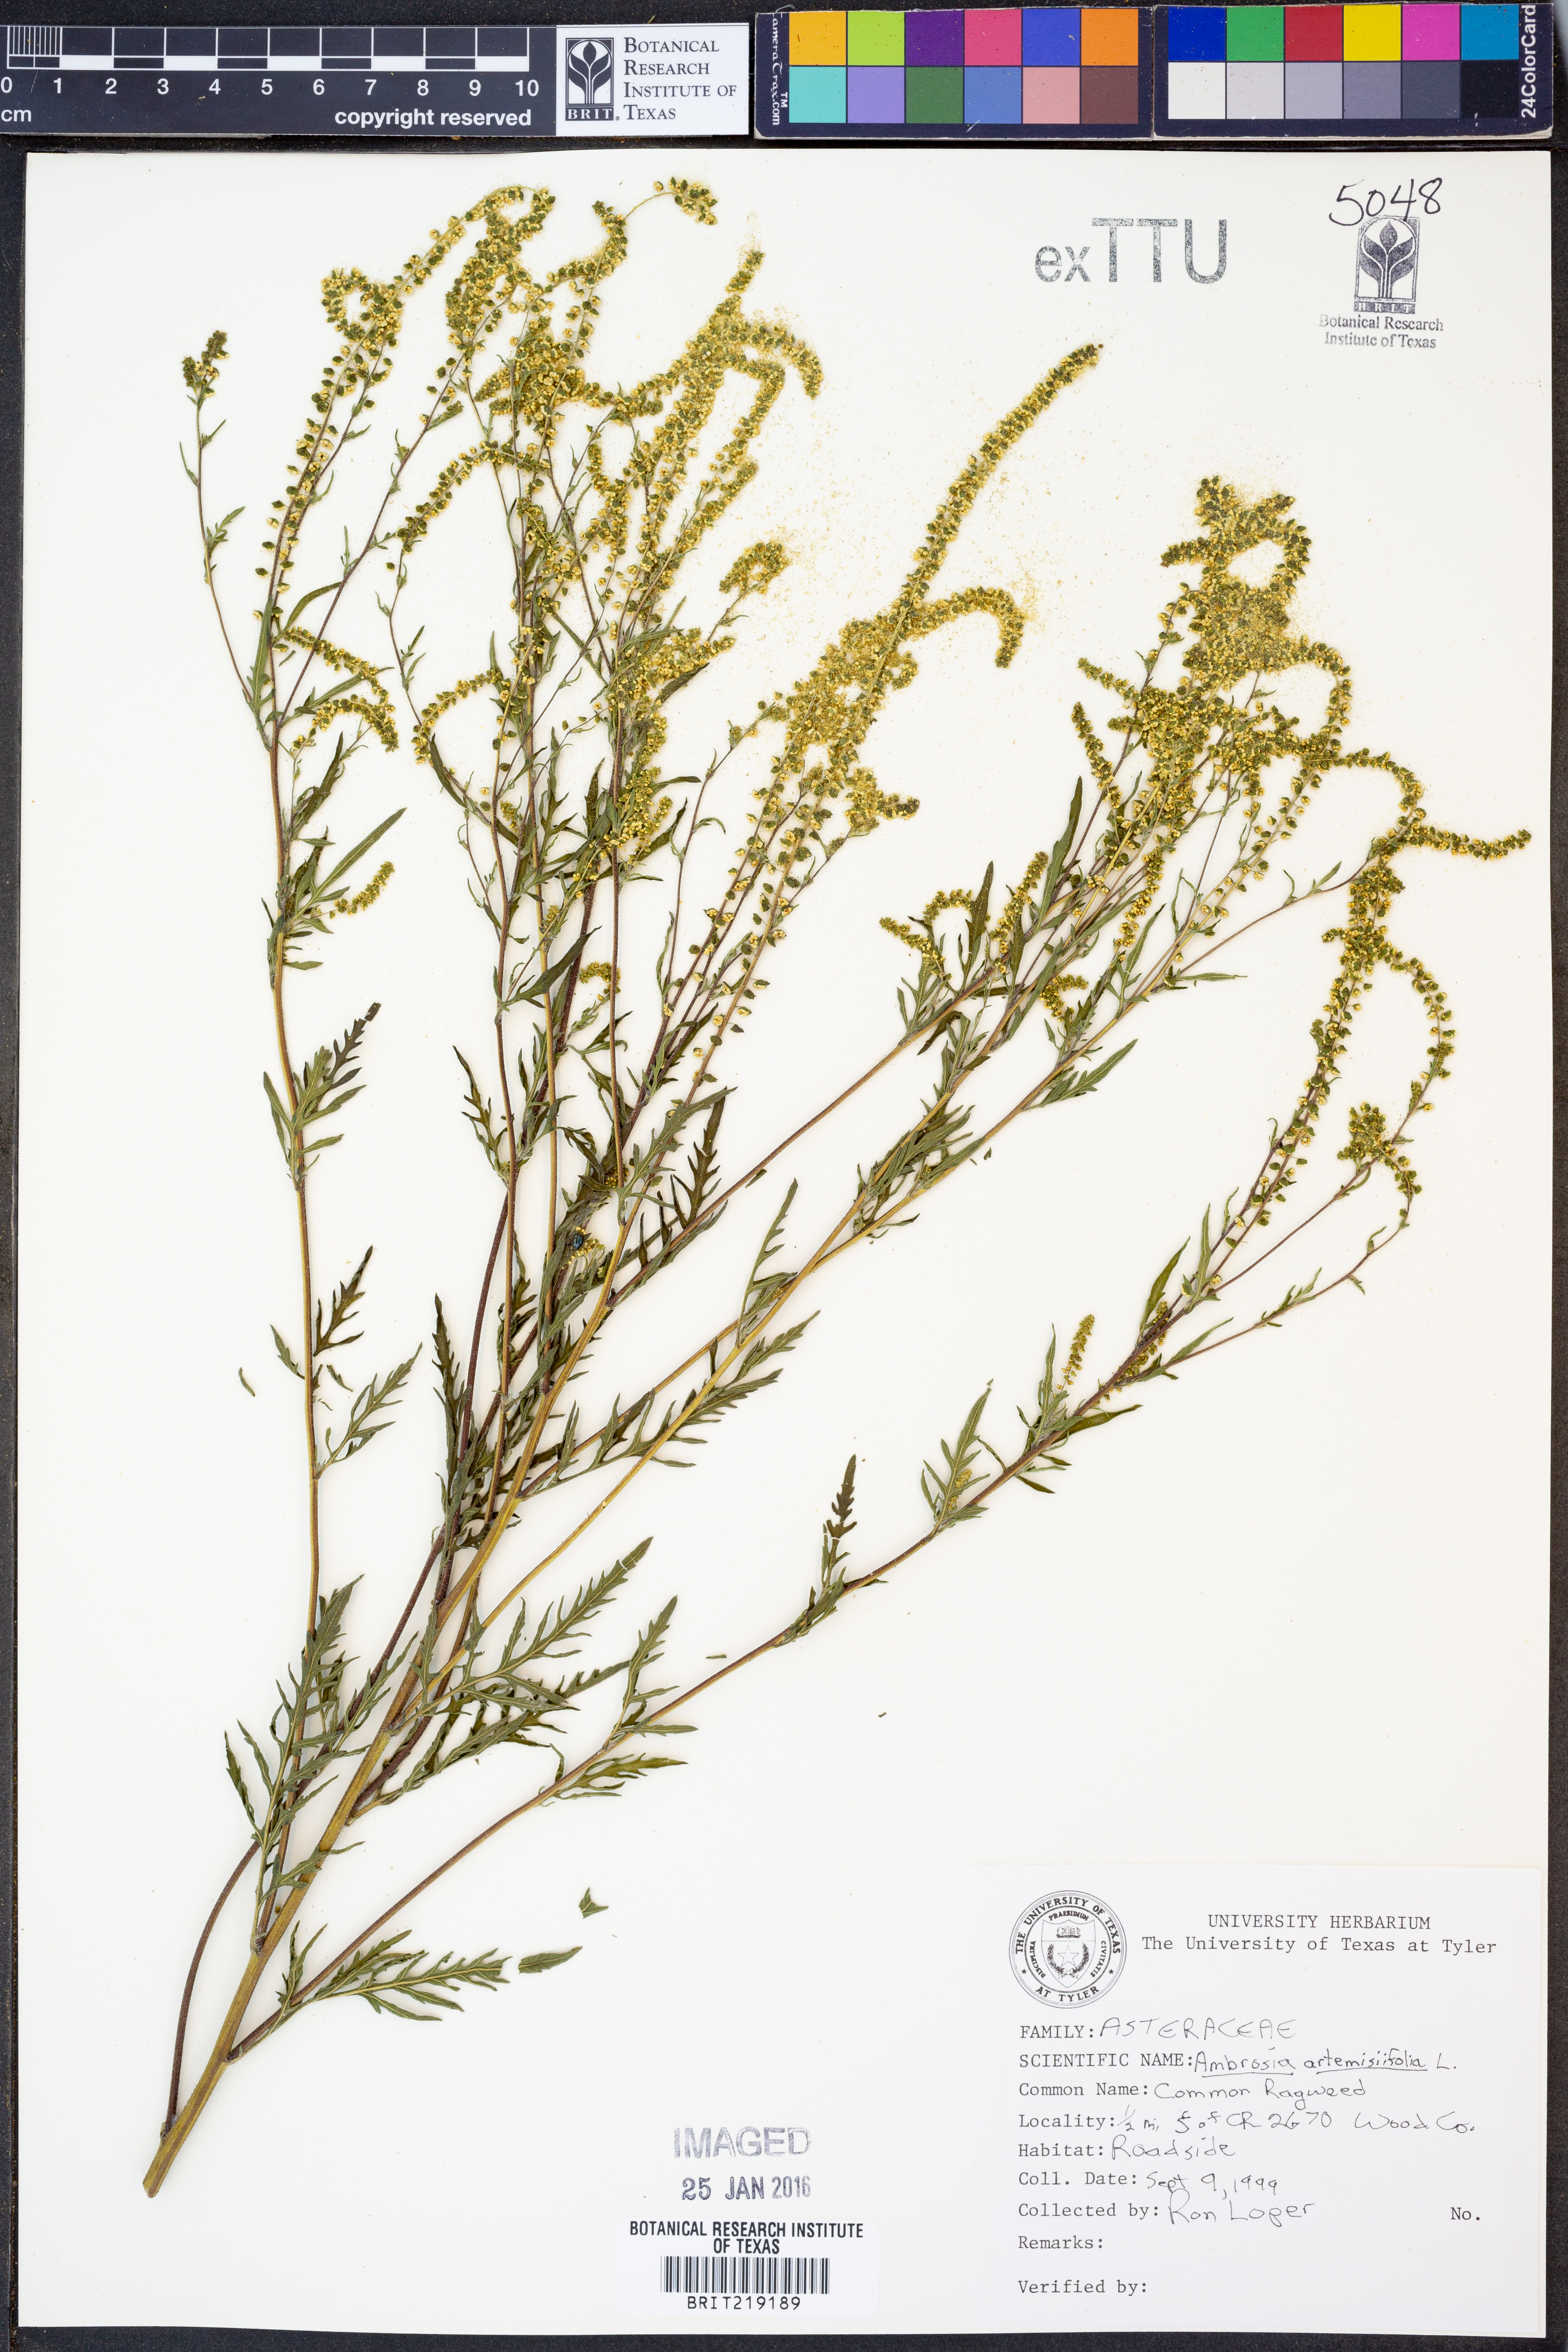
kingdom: Plantae
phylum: Tracheophyta
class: Magnoliopsida
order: Asterales
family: Asteraceae
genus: Ambrosia
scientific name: Ambrosia artemisiifolia
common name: Annual ragweed
